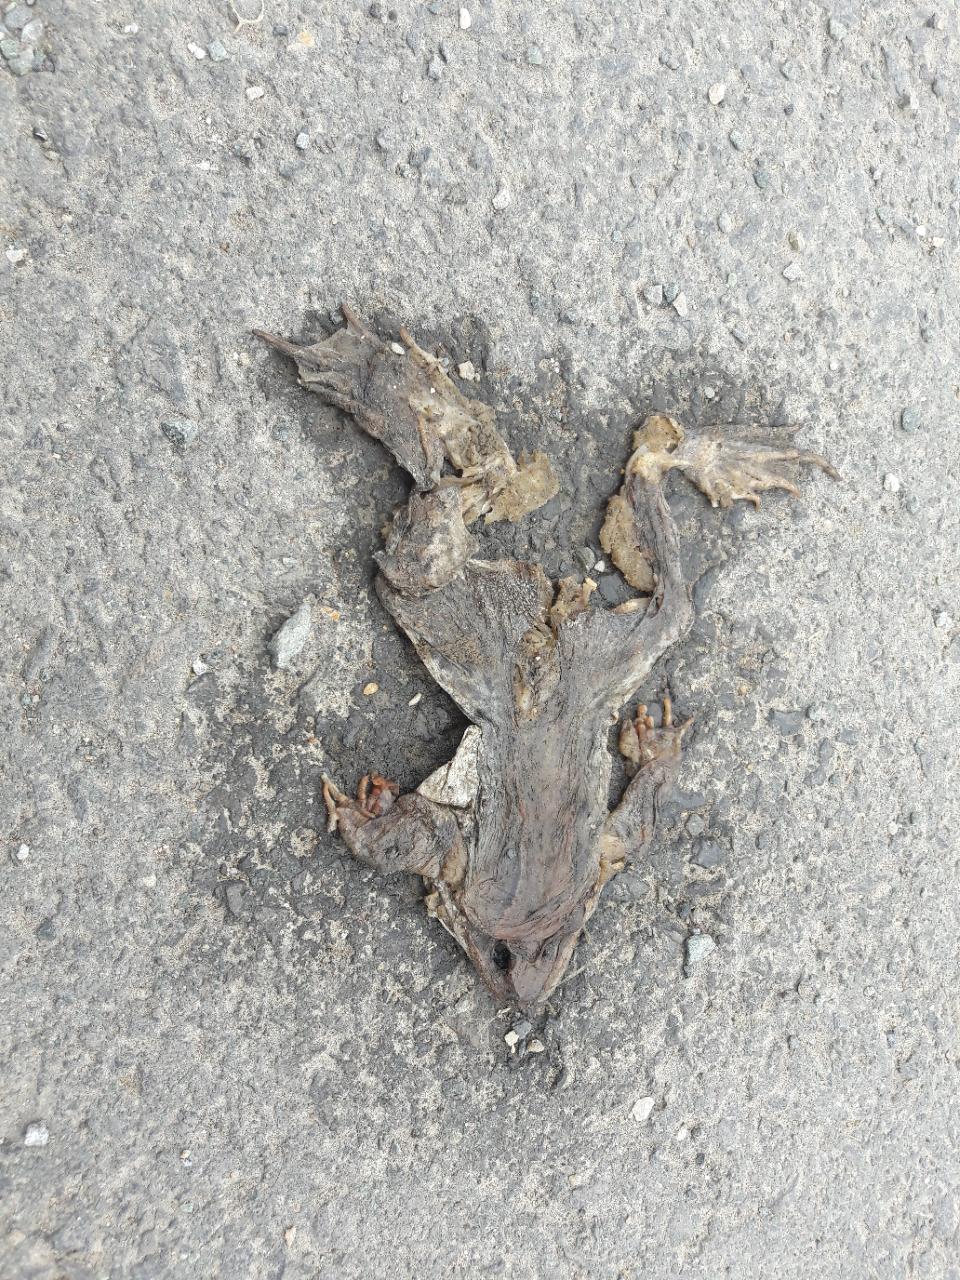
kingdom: Animalia
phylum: Chordata
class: Amphibia
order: Anura
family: Bufonidae
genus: Bufo
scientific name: Bufo bufo
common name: Common toad
